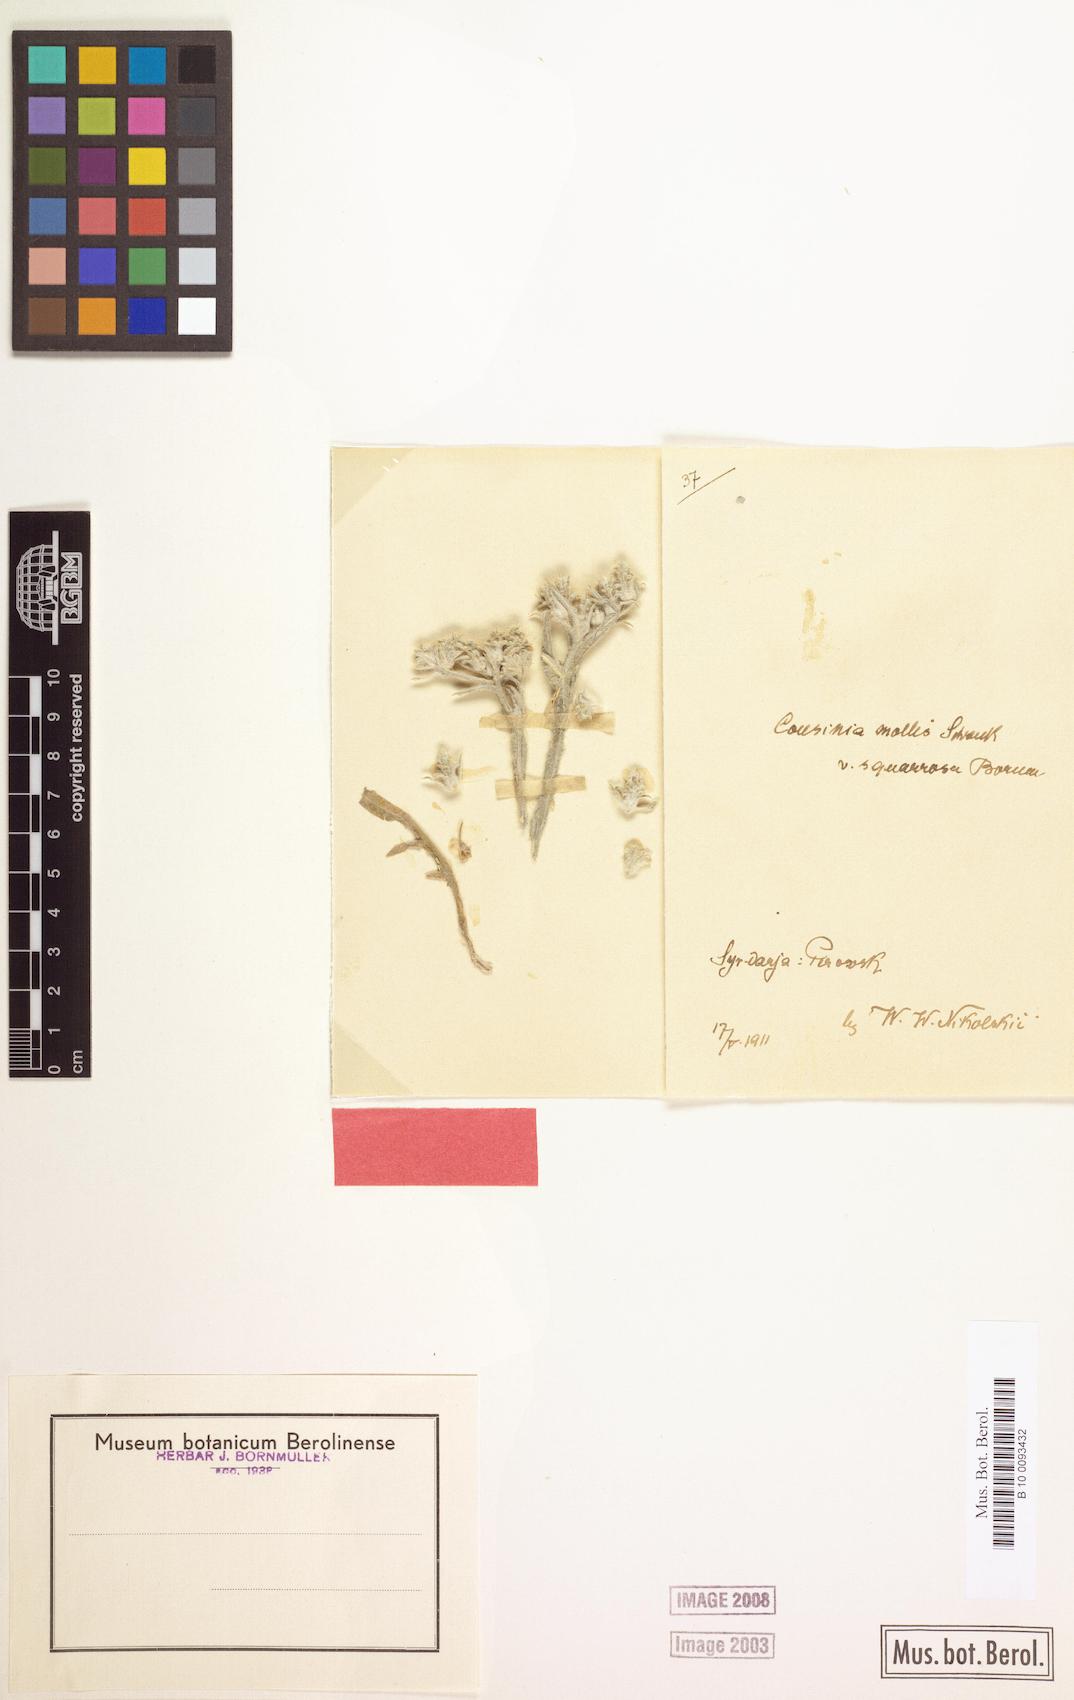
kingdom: Plantae
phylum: Tracheophyta
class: Magnoliopsida
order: Asterales
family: Asteraceae
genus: Cousinia
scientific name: Cousinia mollis
